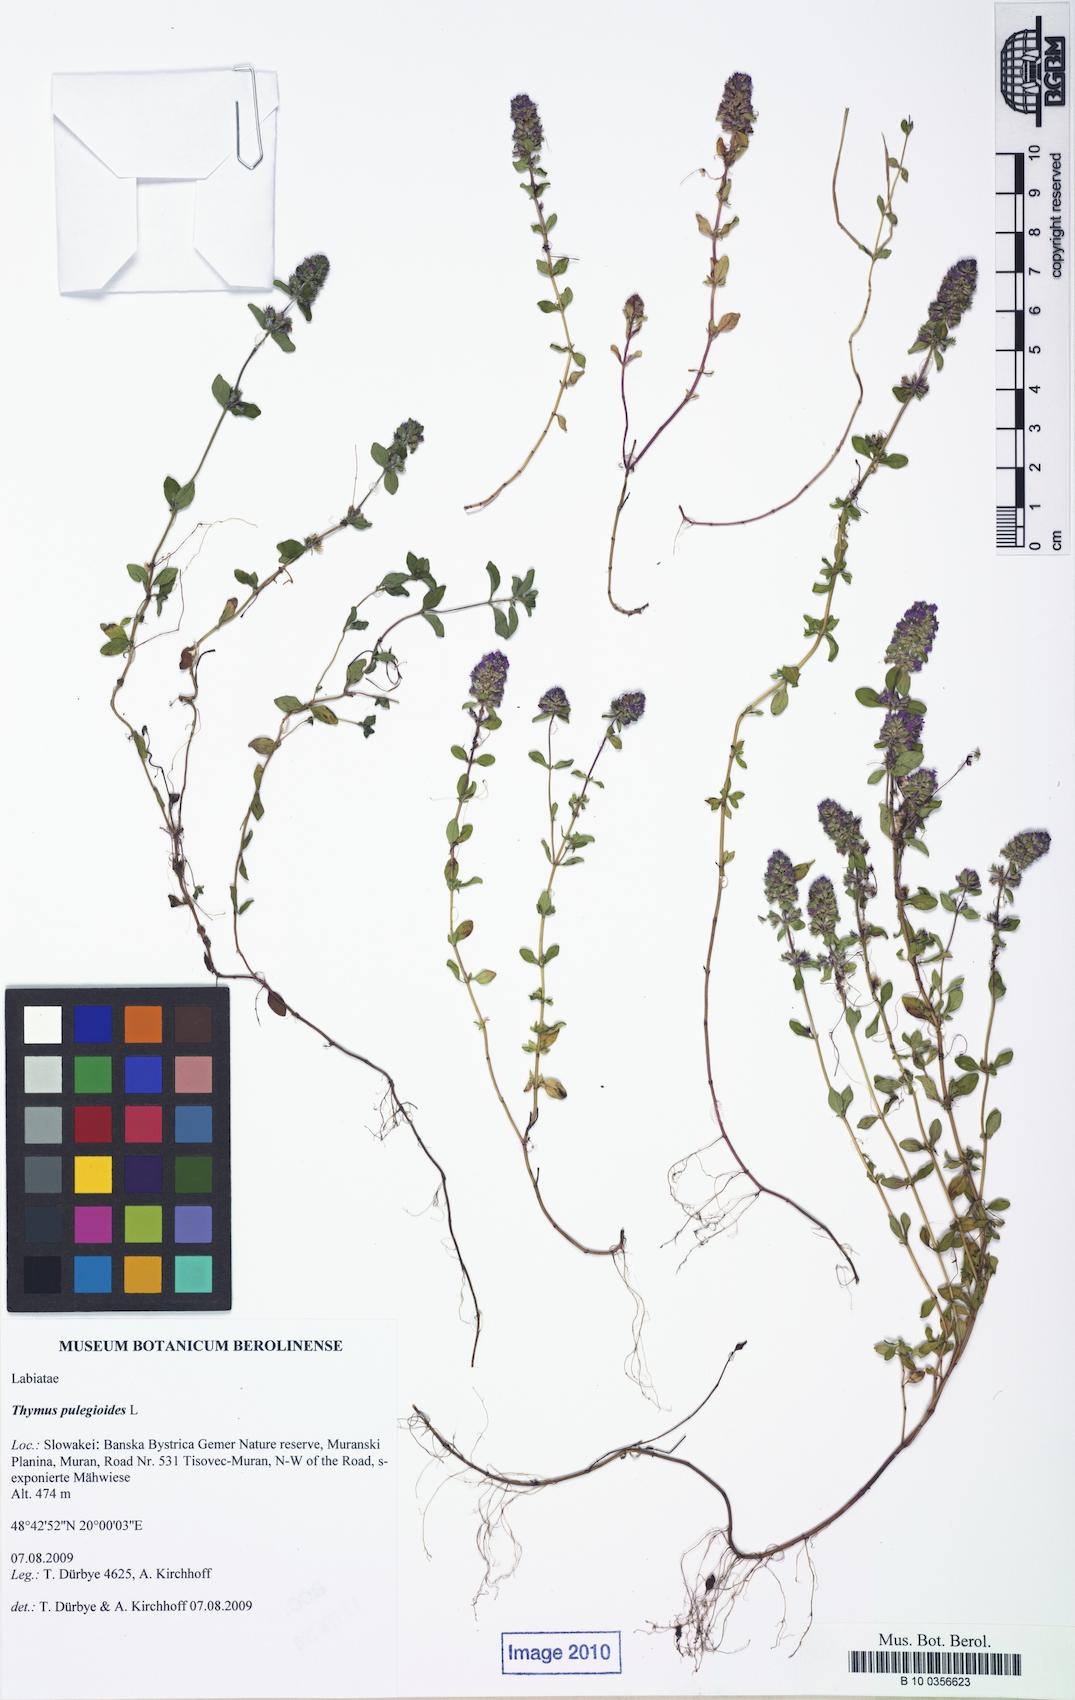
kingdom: Plantae
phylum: Tracheophyta
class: Magnoliopsida
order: Lamiales
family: Lamiaceae
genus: Thymus
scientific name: Thymus pulegioides
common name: Large thyme
